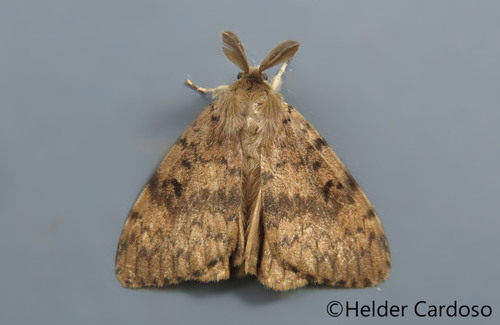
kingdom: Animalia
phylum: Arthropoda
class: Insecta
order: Lepidoptera
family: Erebidae
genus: Lymantria
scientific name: Lymantria dispar
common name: Gypsy moth
